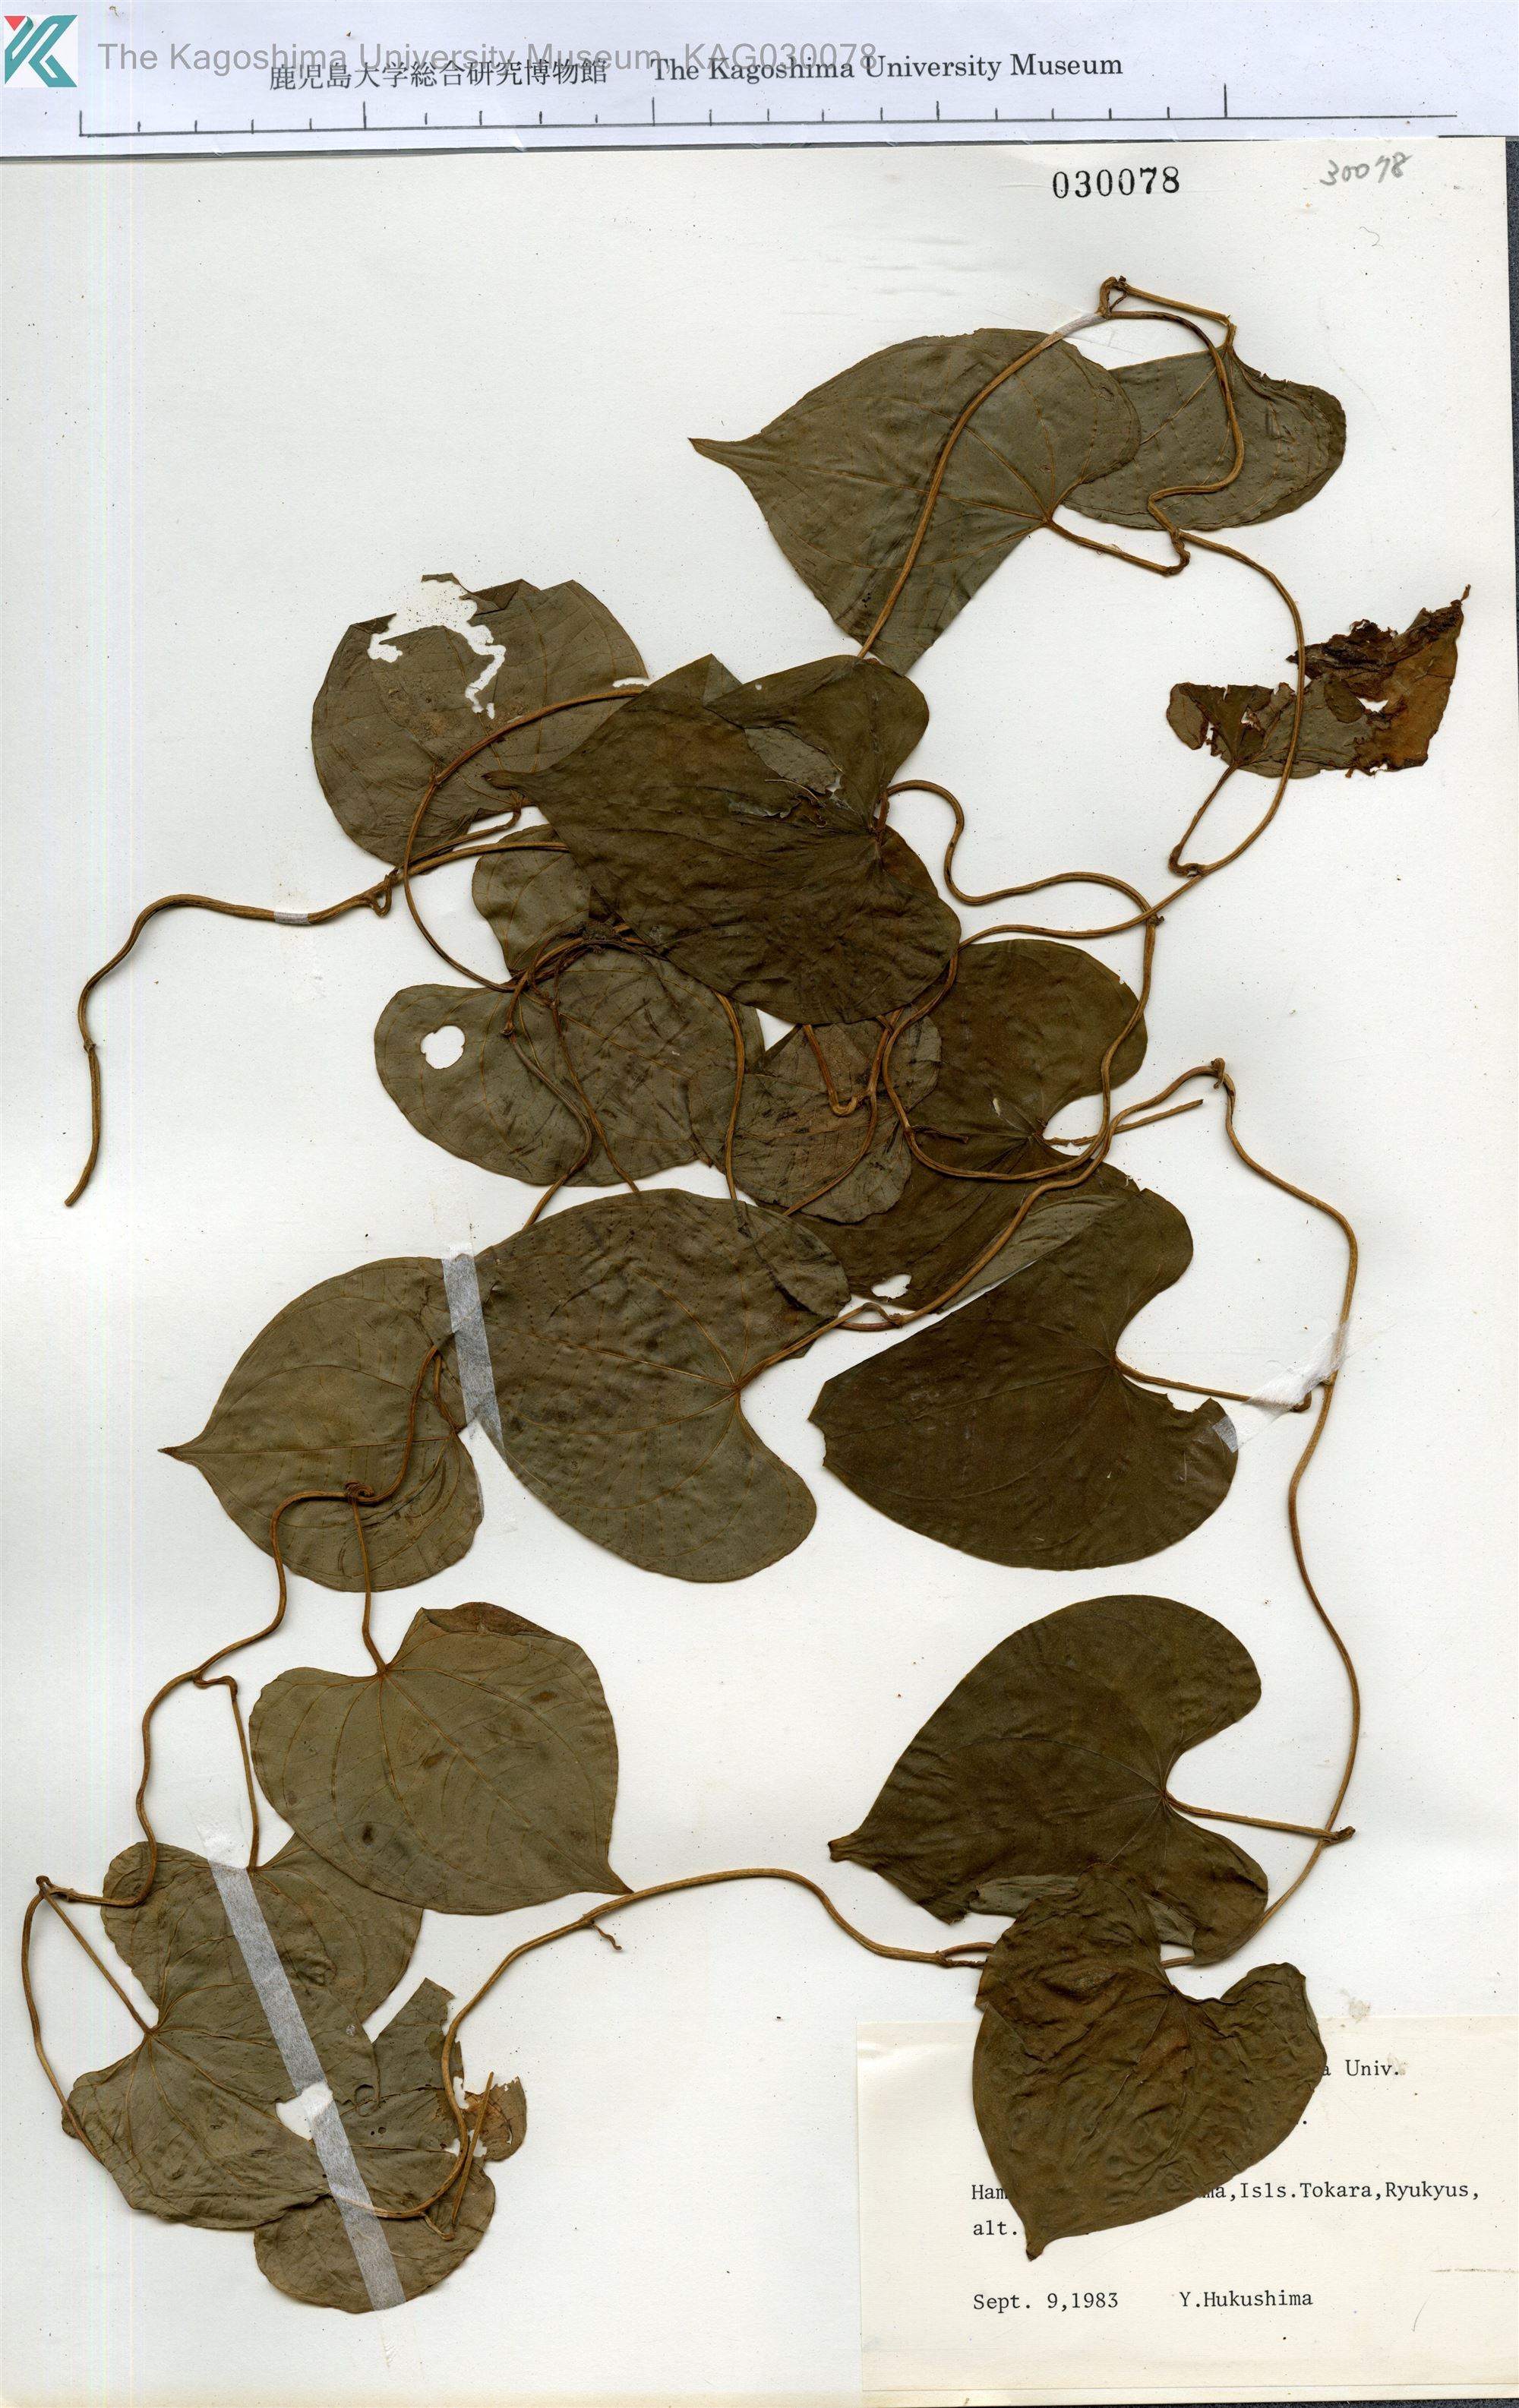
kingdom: Plantae
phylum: Tracheophyta
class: Liliopsida
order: Dioscoreales
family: Dioscoreaceae
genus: Dioscorea
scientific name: Dioscorea bulbifera
